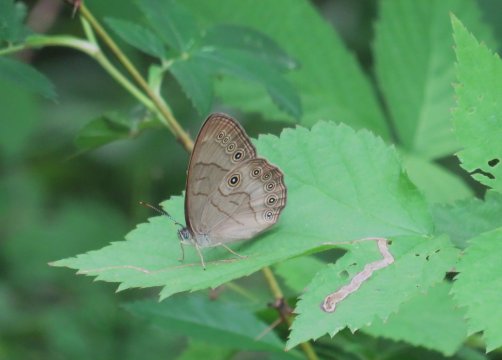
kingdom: Animalia
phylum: Arthropoda
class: Insecta
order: Lepidoptera
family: Nymphalidae
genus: Lethe
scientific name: Lethe eurydice
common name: Appalachian Eyed Brown
